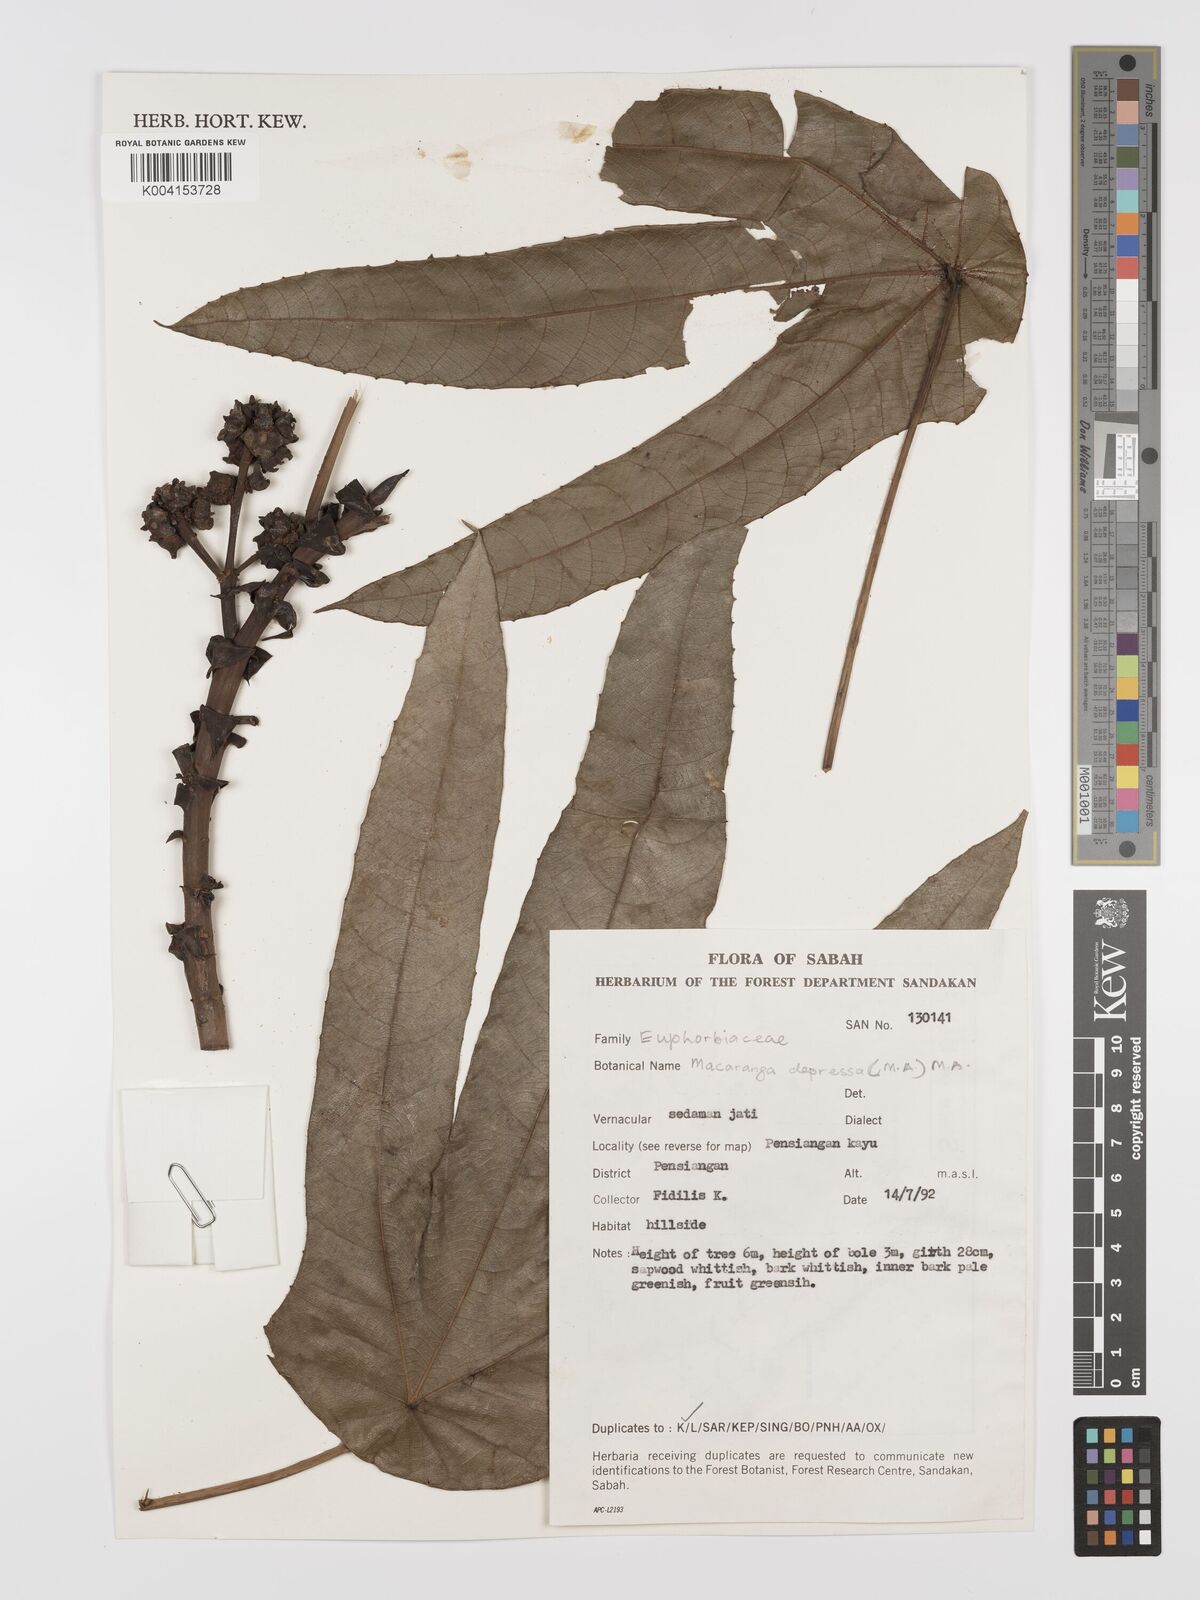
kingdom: Plantae
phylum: Tracheophyta
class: Magnoliopsida
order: Malpighiales
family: Euphorbiaceae
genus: Macaranga
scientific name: Macaranga depressa
